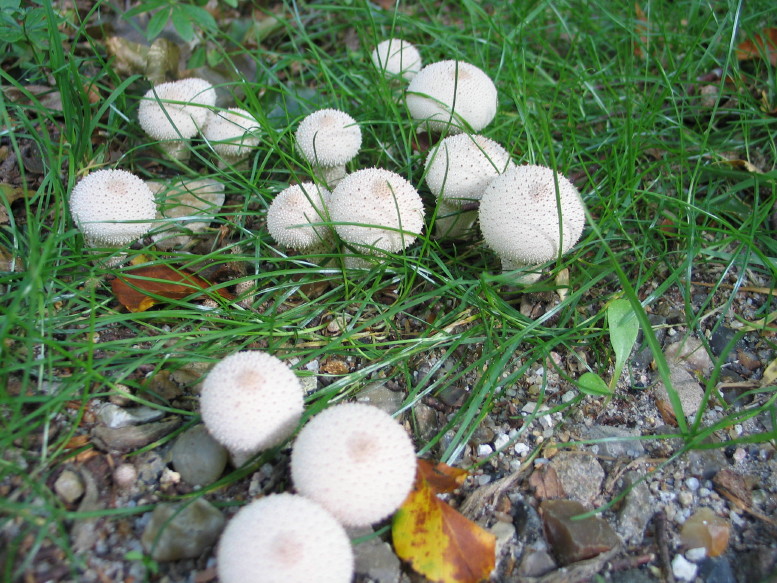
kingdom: Fungi
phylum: Basidiomycota
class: Agaricomycetes
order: Agaricales
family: Lycoperdaceae
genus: Lycoperdon
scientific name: Lycoperdon perlatum
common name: krystal-støvbold
